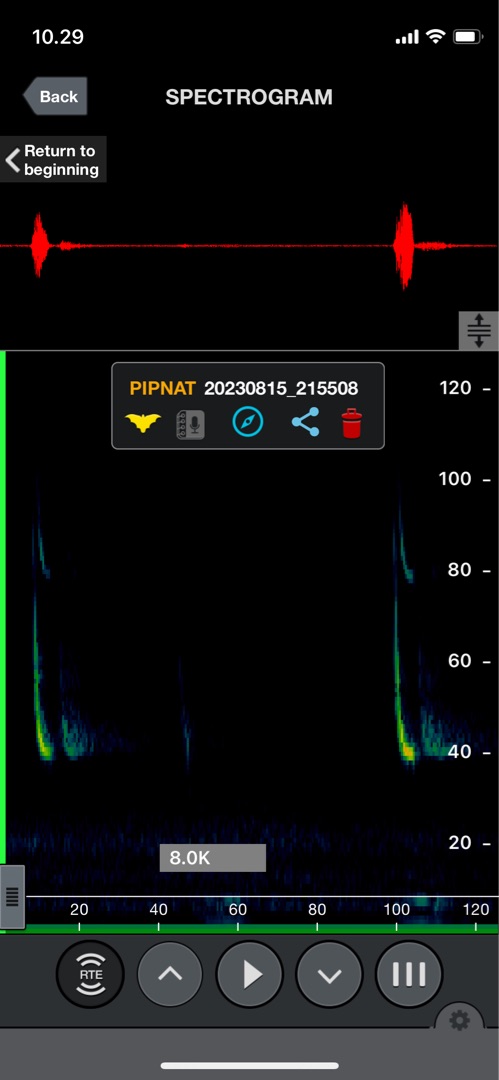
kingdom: Animalia
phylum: Chordata
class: Mammalia
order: Chiroptera
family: Vespertilionidae
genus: Pipistrellus
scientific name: Pipistrellus nathusii
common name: Troldflagermus
